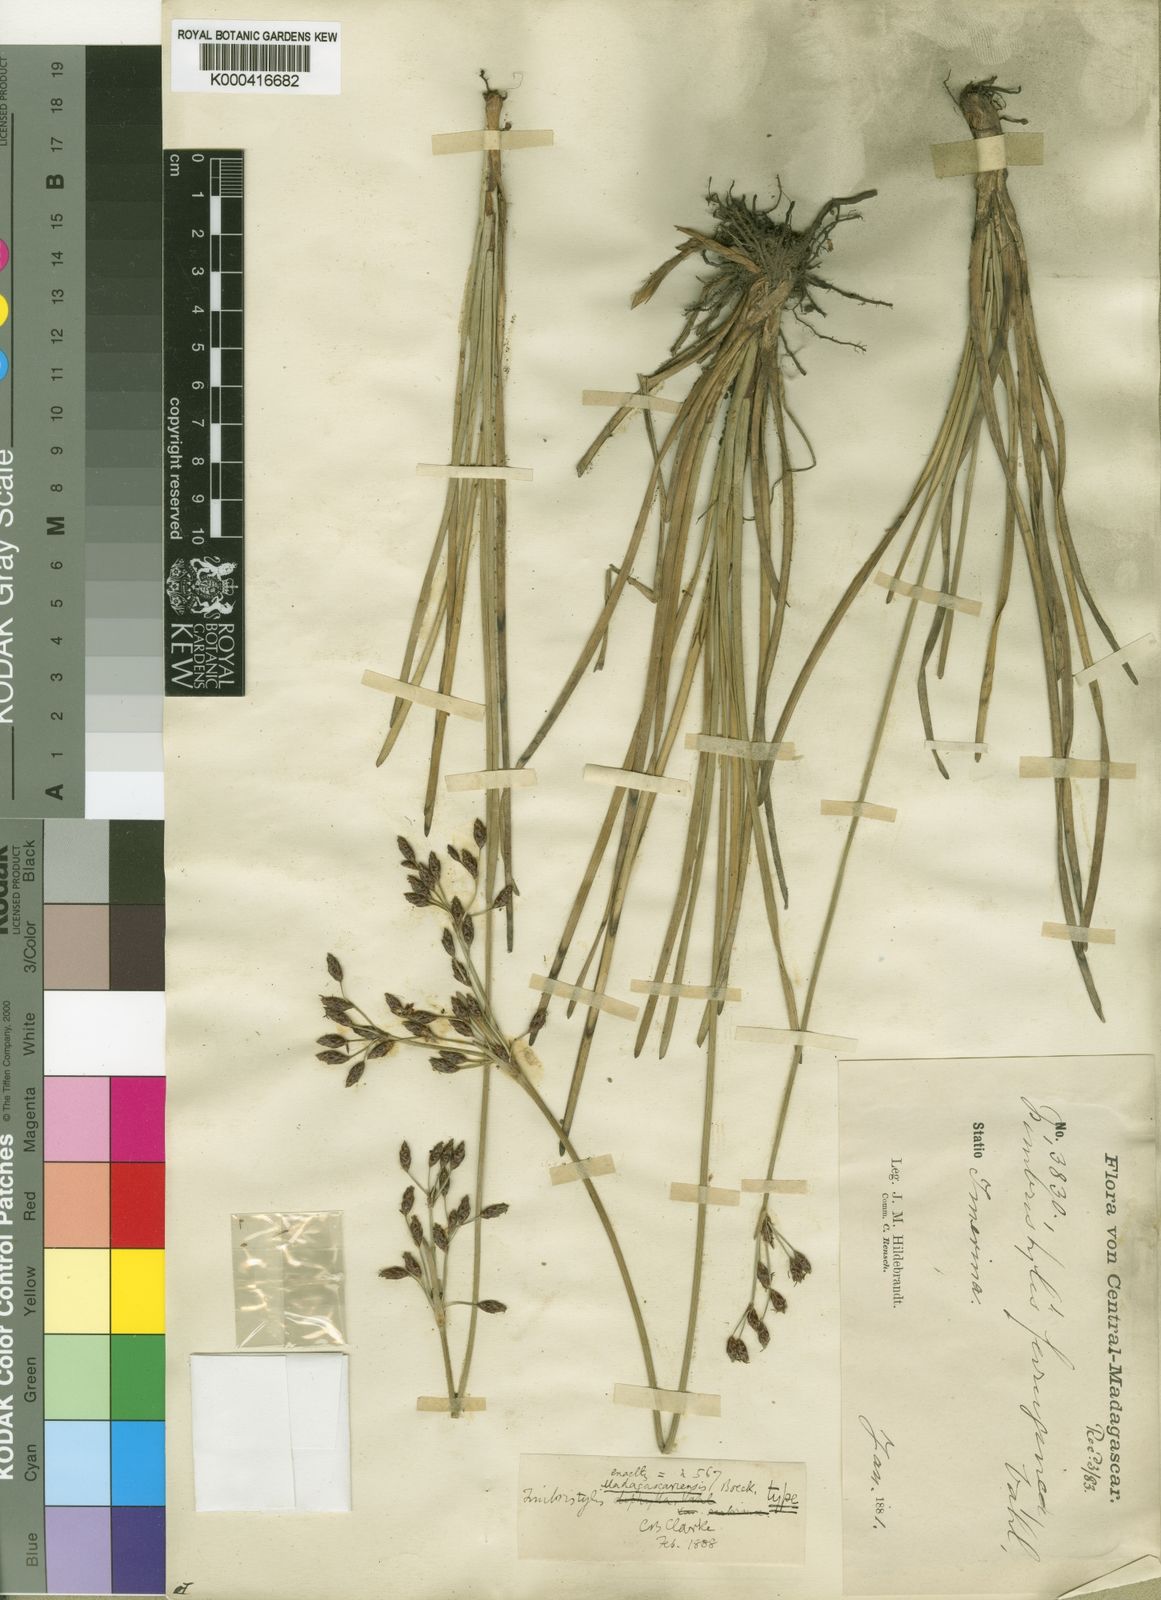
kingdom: Plantae
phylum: Tracheophyta
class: Liliopsida
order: Poales
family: Cyperaceae
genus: Fimbristylis
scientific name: Fimbristylis madagascariensis
